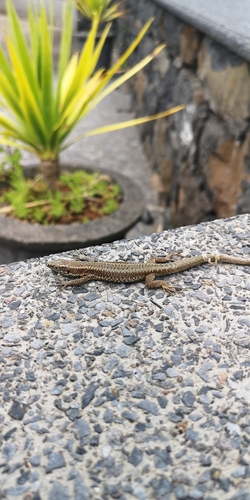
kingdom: Animalia
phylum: Chordata
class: Squamata
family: Lacertidae
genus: Teira
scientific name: Teira dugesii
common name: Madeira lizard
